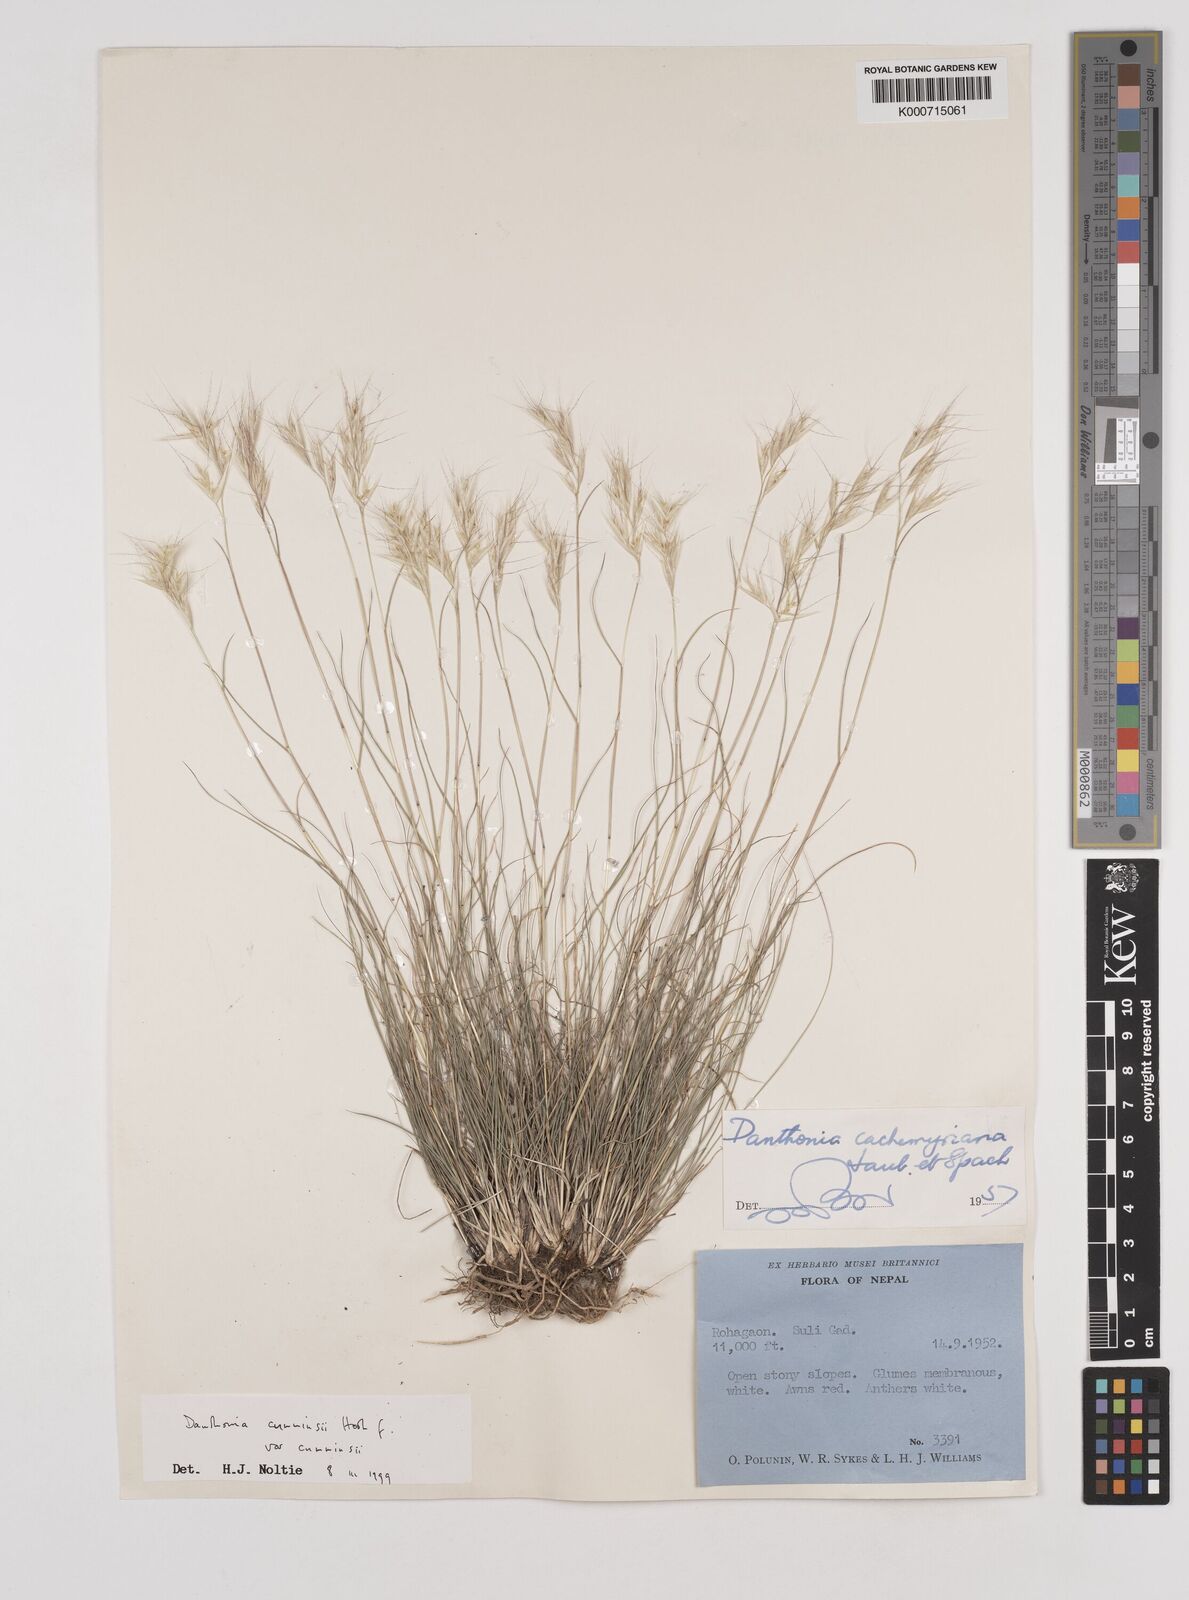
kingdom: Plantae
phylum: Tracheophyta
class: Liliopsida
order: Poales
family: Poaceae
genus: Rytidosperma
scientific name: Rytidosperma
